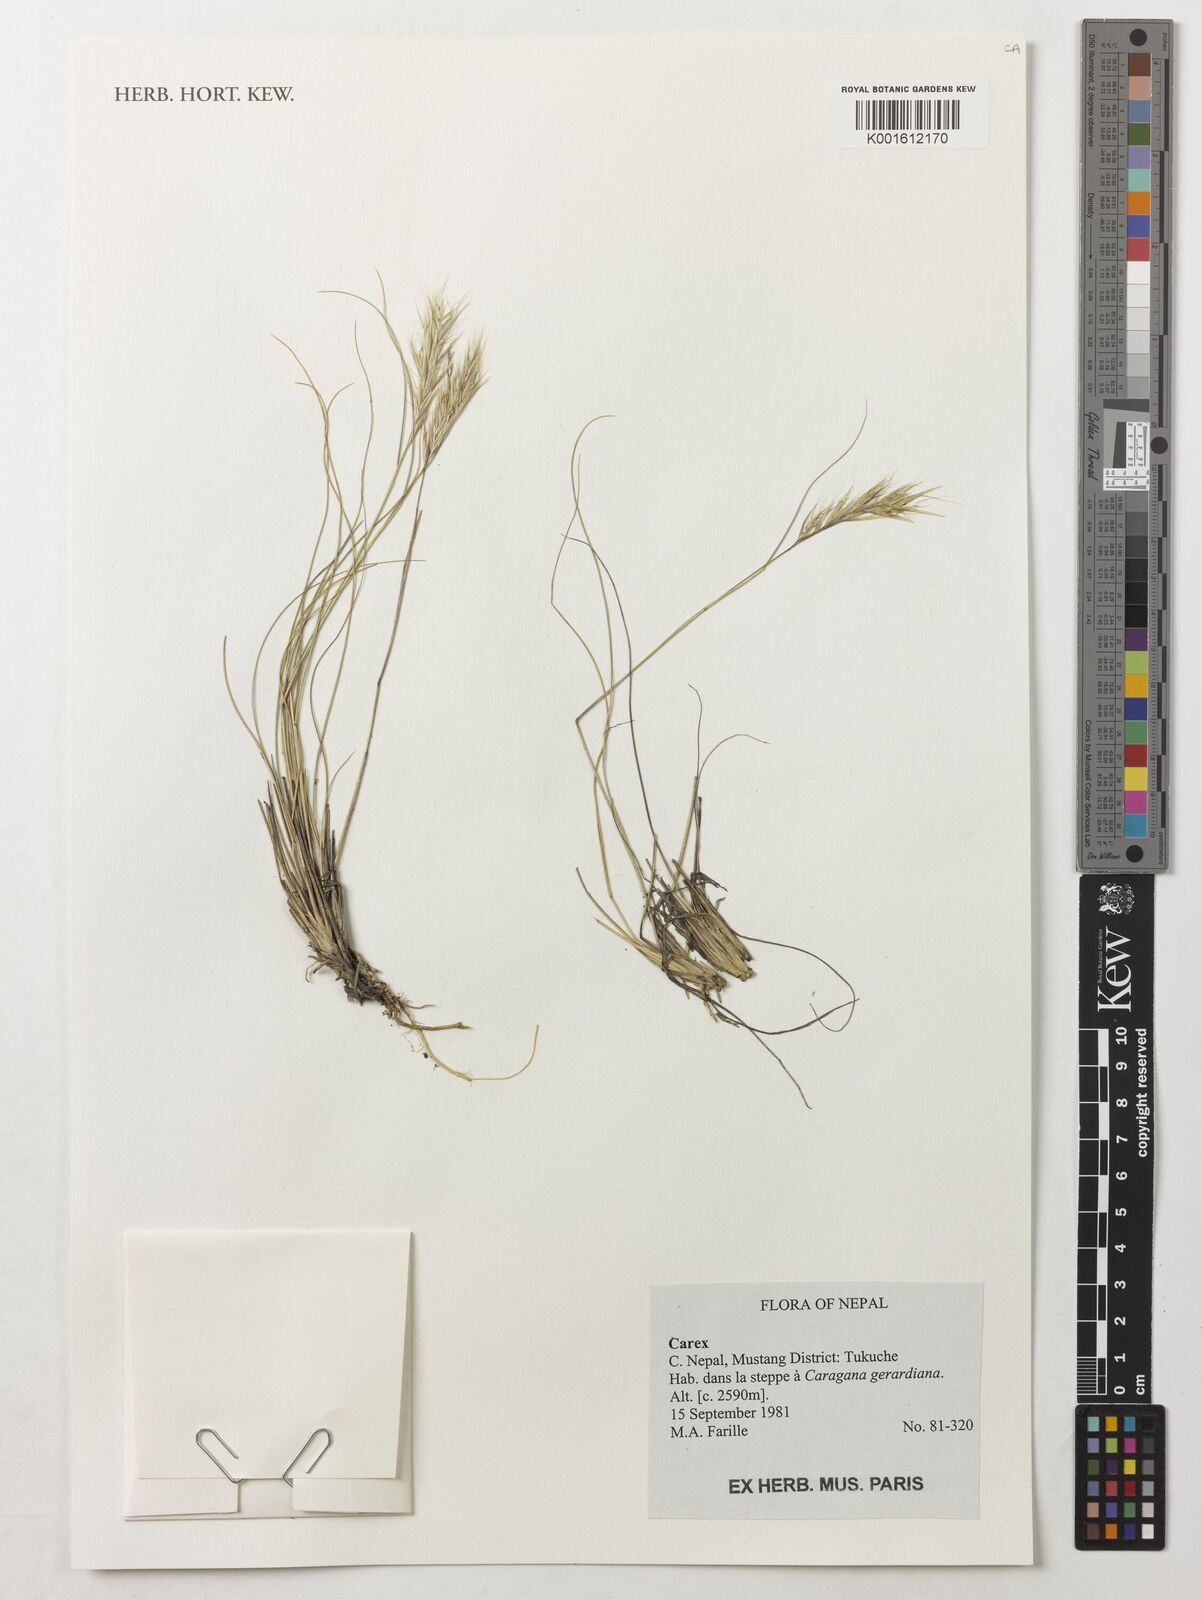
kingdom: Plantae
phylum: Tracheophyta
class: Liliopsida
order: Poales
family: Cyperaceae
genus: Carex
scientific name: Carex
